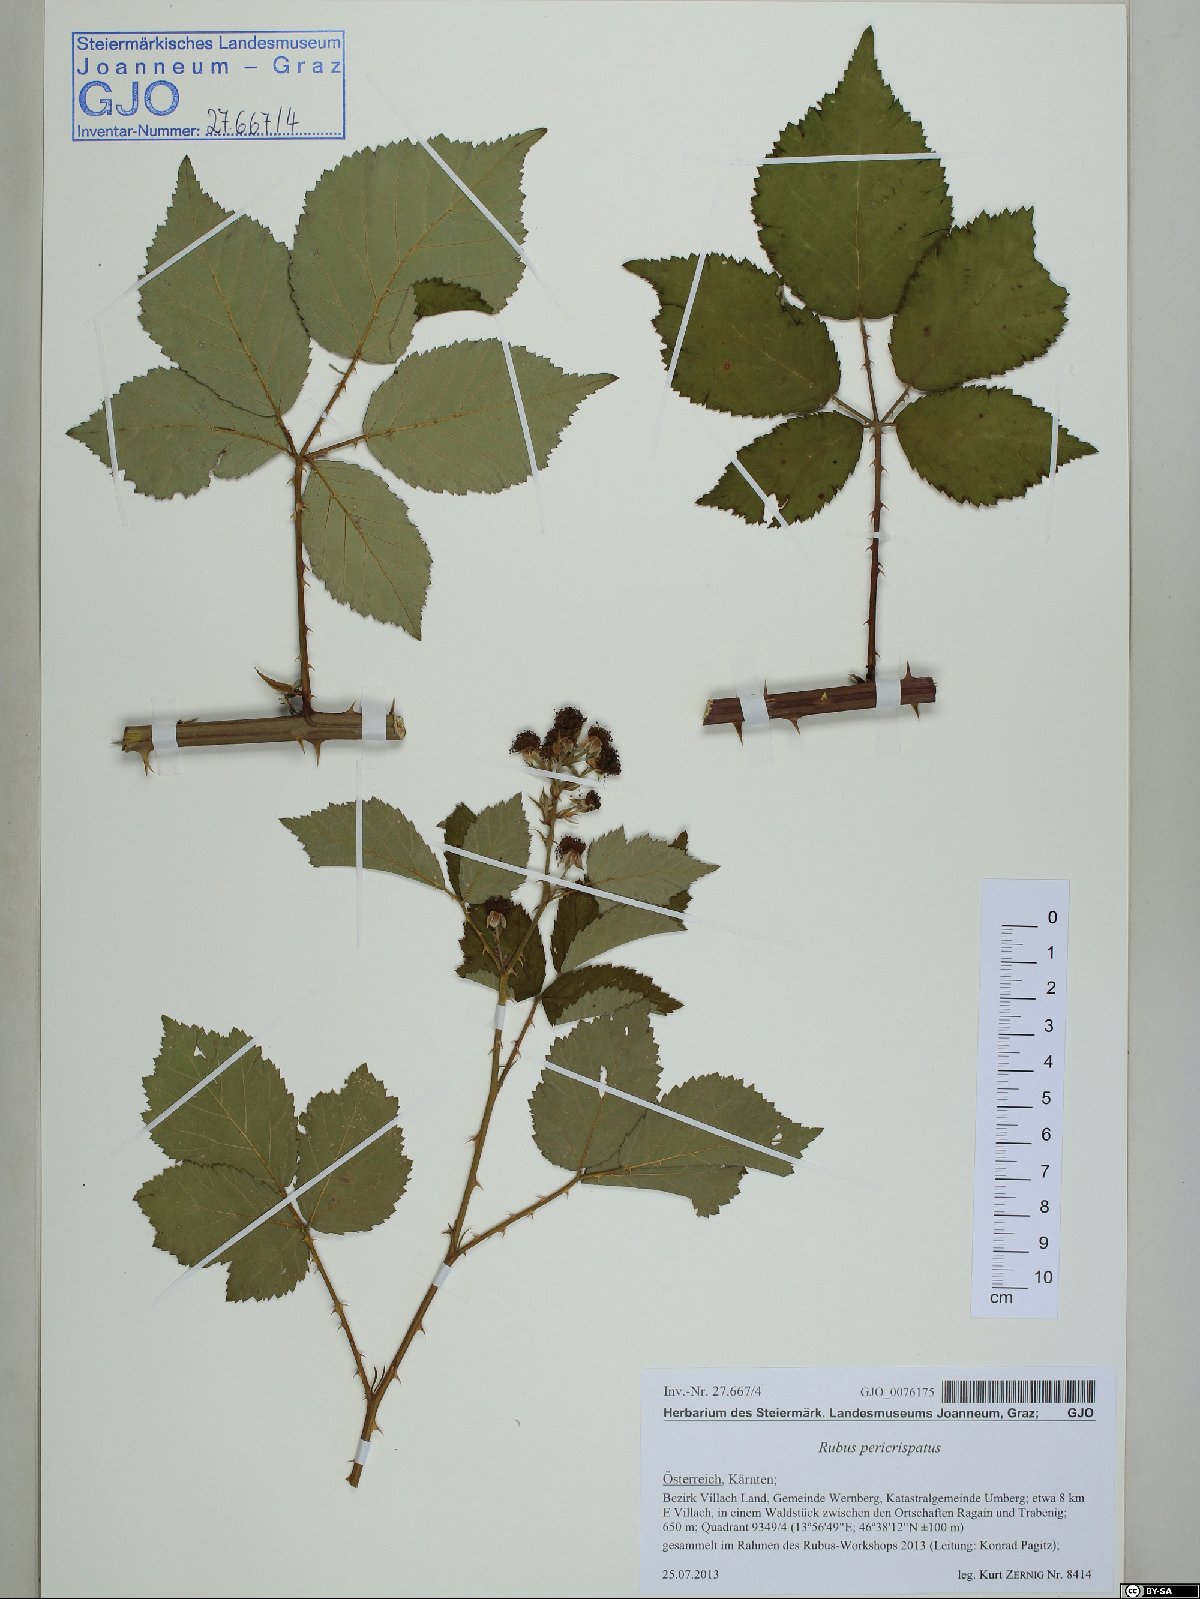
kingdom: Plantae
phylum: Tracheophyta
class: Magnoliopsida
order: Rosales
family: Rosaceae
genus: Rubus
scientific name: Rubus pericrispatus
